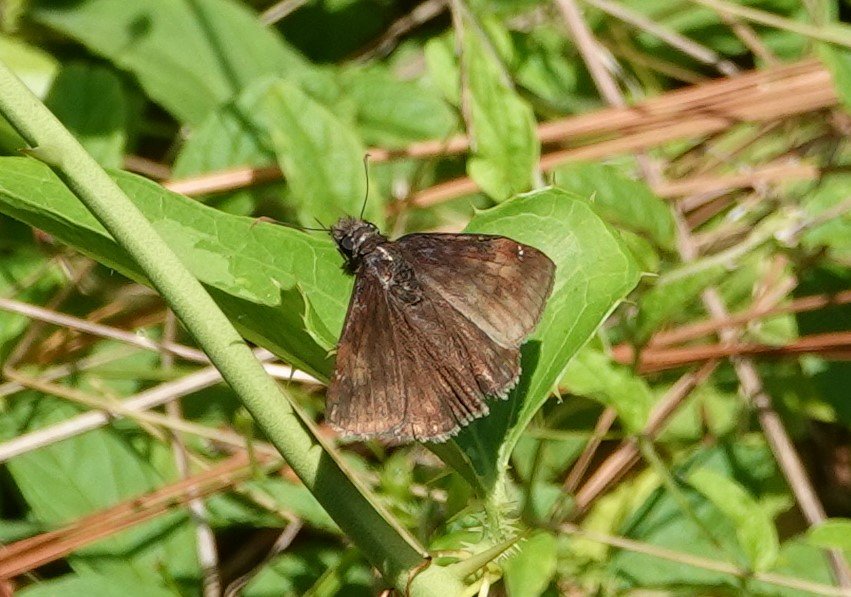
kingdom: Animalia
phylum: Arthropoda
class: Insecta
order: Lepidoptera
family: Hesperiidae
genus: Erynnis
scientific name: Erynnis zarucco
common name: Zarucco Duskywing
